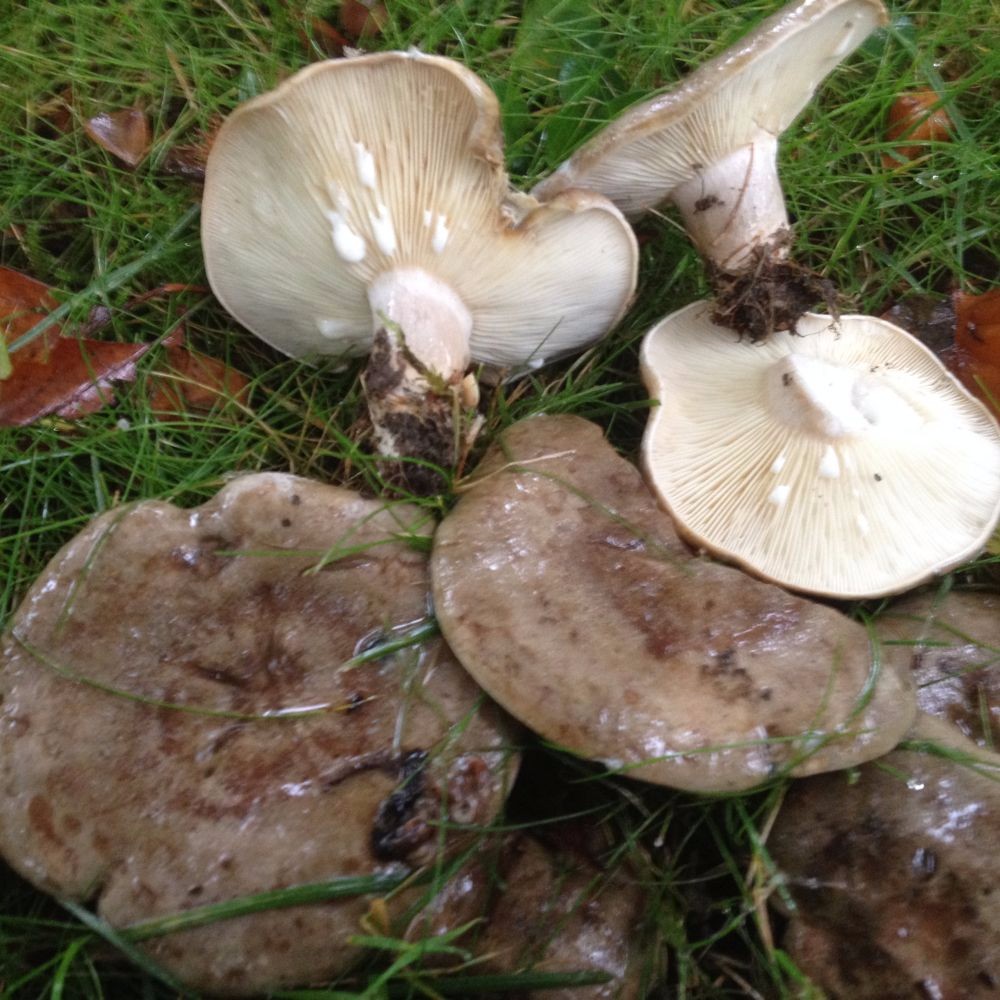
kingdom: Fungi
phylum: Basidiomycota
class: Agaricomycetes
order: Russulales
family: Russulaceae
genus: Lactarius
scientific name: Lactarius blennius
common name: dråbeplettet mælkehat
